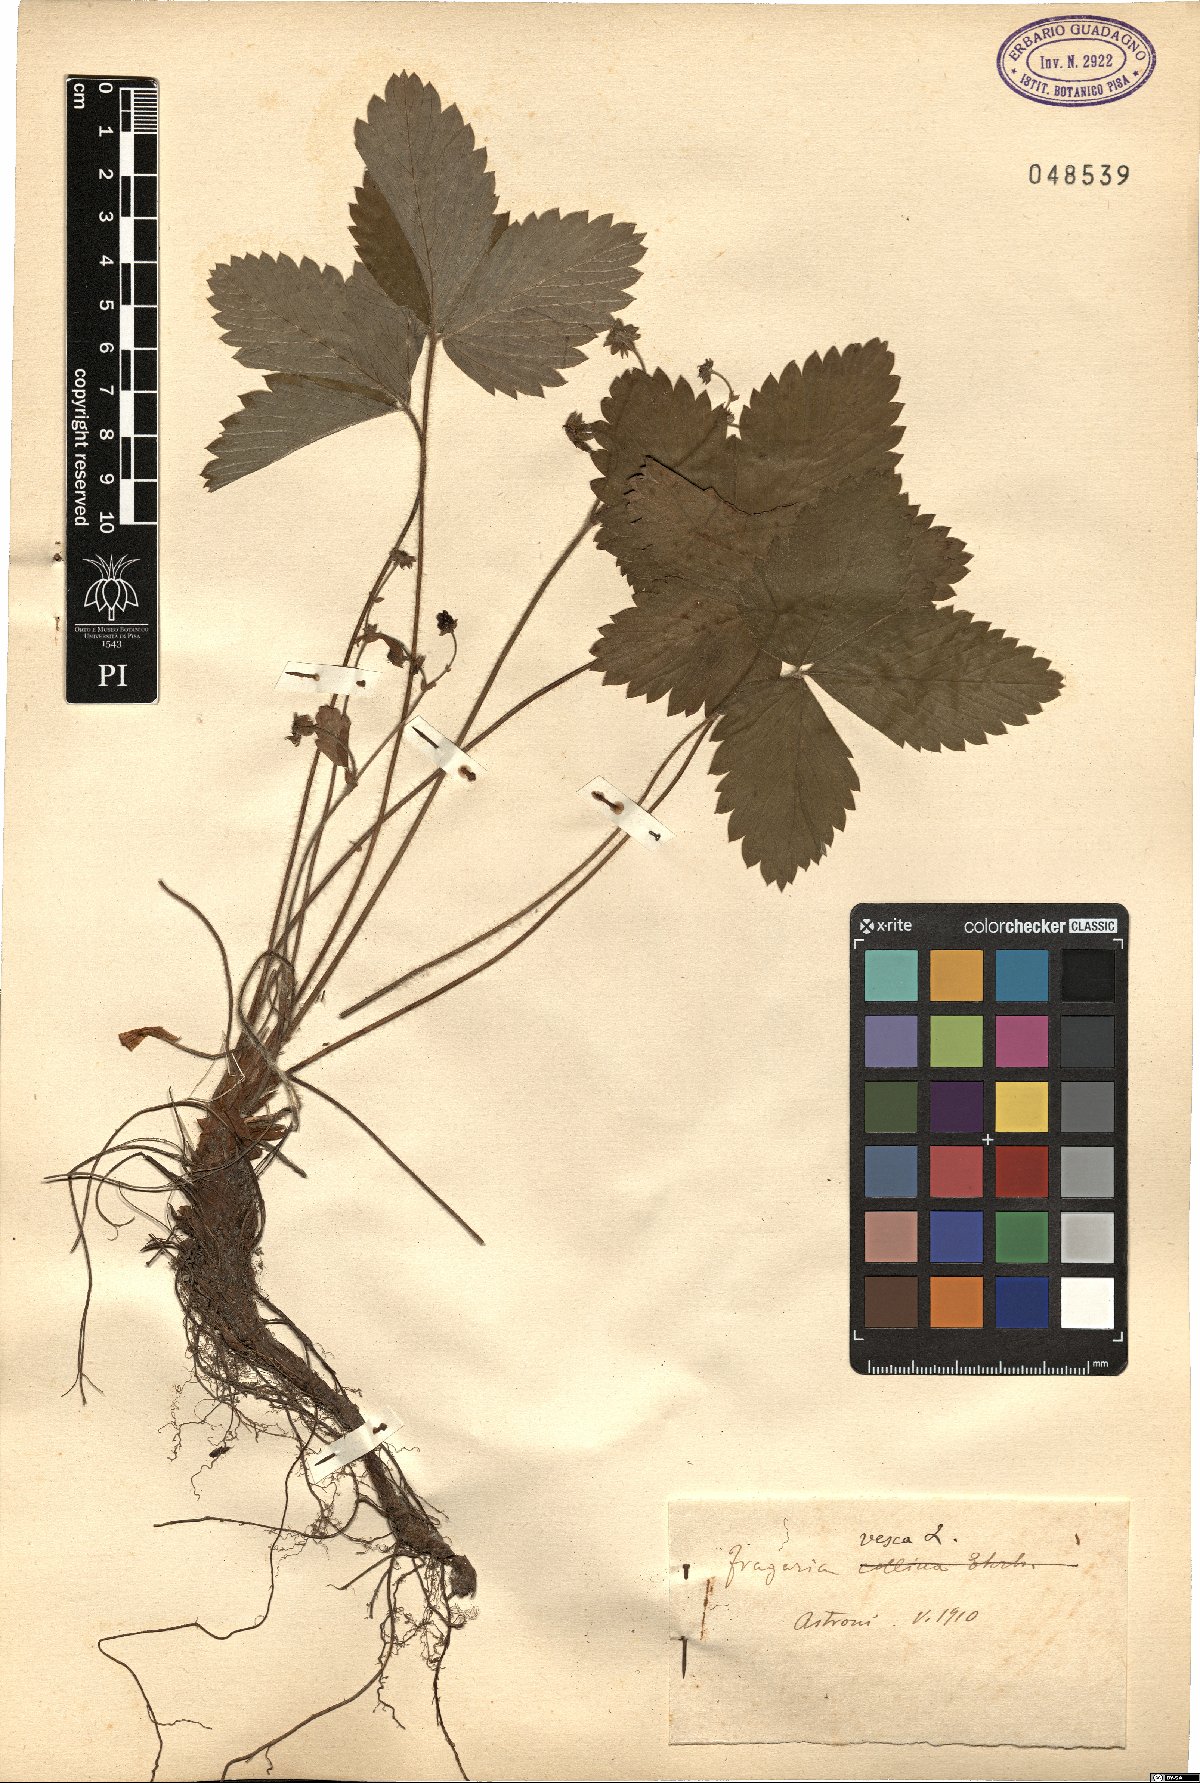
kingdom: Plantae
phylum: Tracheophyta
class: Magnoliopsida
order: Rosales
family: Rosaceae
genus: Fragaria
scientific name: Fragaria vesca
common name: Wild strawberry
